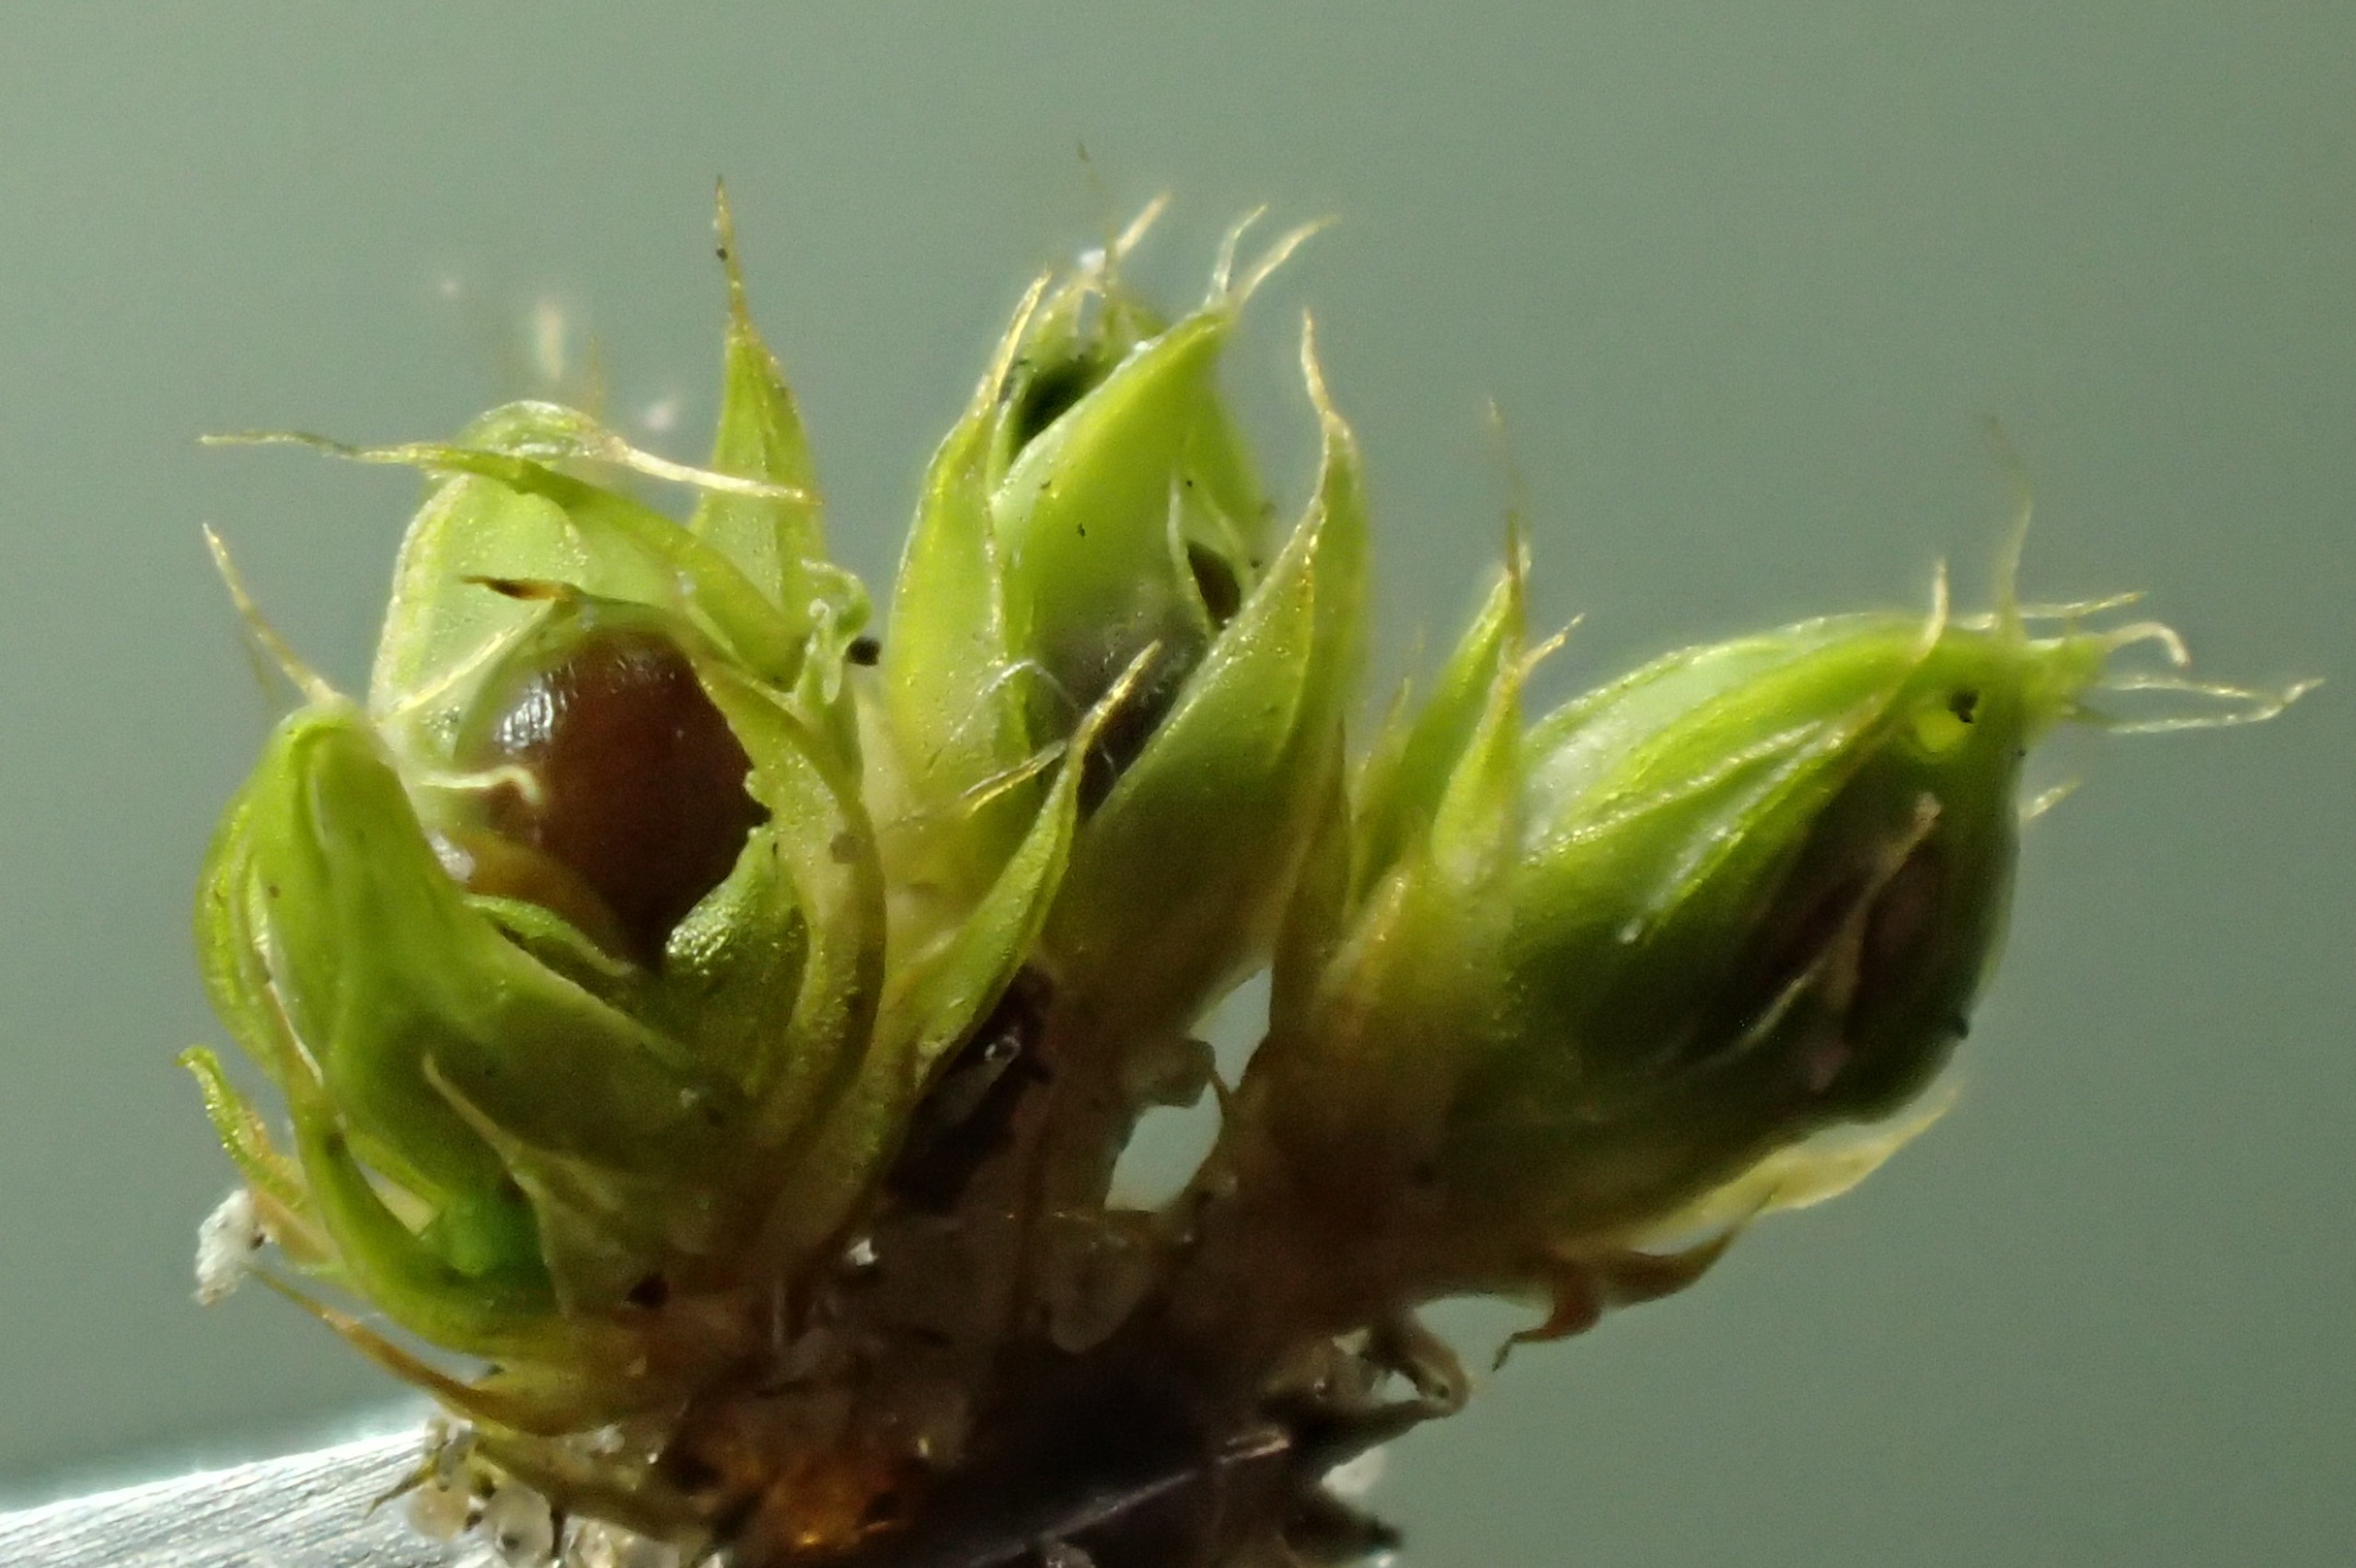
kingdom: Plantae
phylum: Bryophyta
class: Bryopsida
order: Pottiales
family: Pottiaceae
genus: Tortula
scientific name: Tortula acaulon
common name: Tilspidset dværgmos
